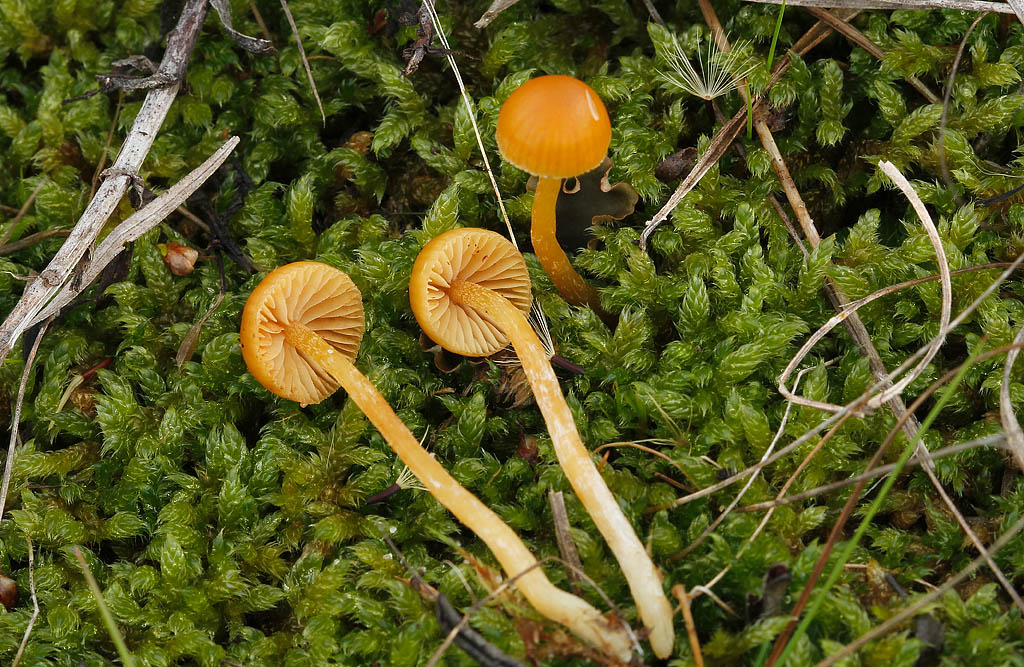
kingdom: Fungi
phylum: Basidiomycota
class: Agaricomycetes
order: Agaricales
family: Hymenogastraceae
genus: Galerina
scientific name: Galerina pumila
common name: honninggul hjelmhat
